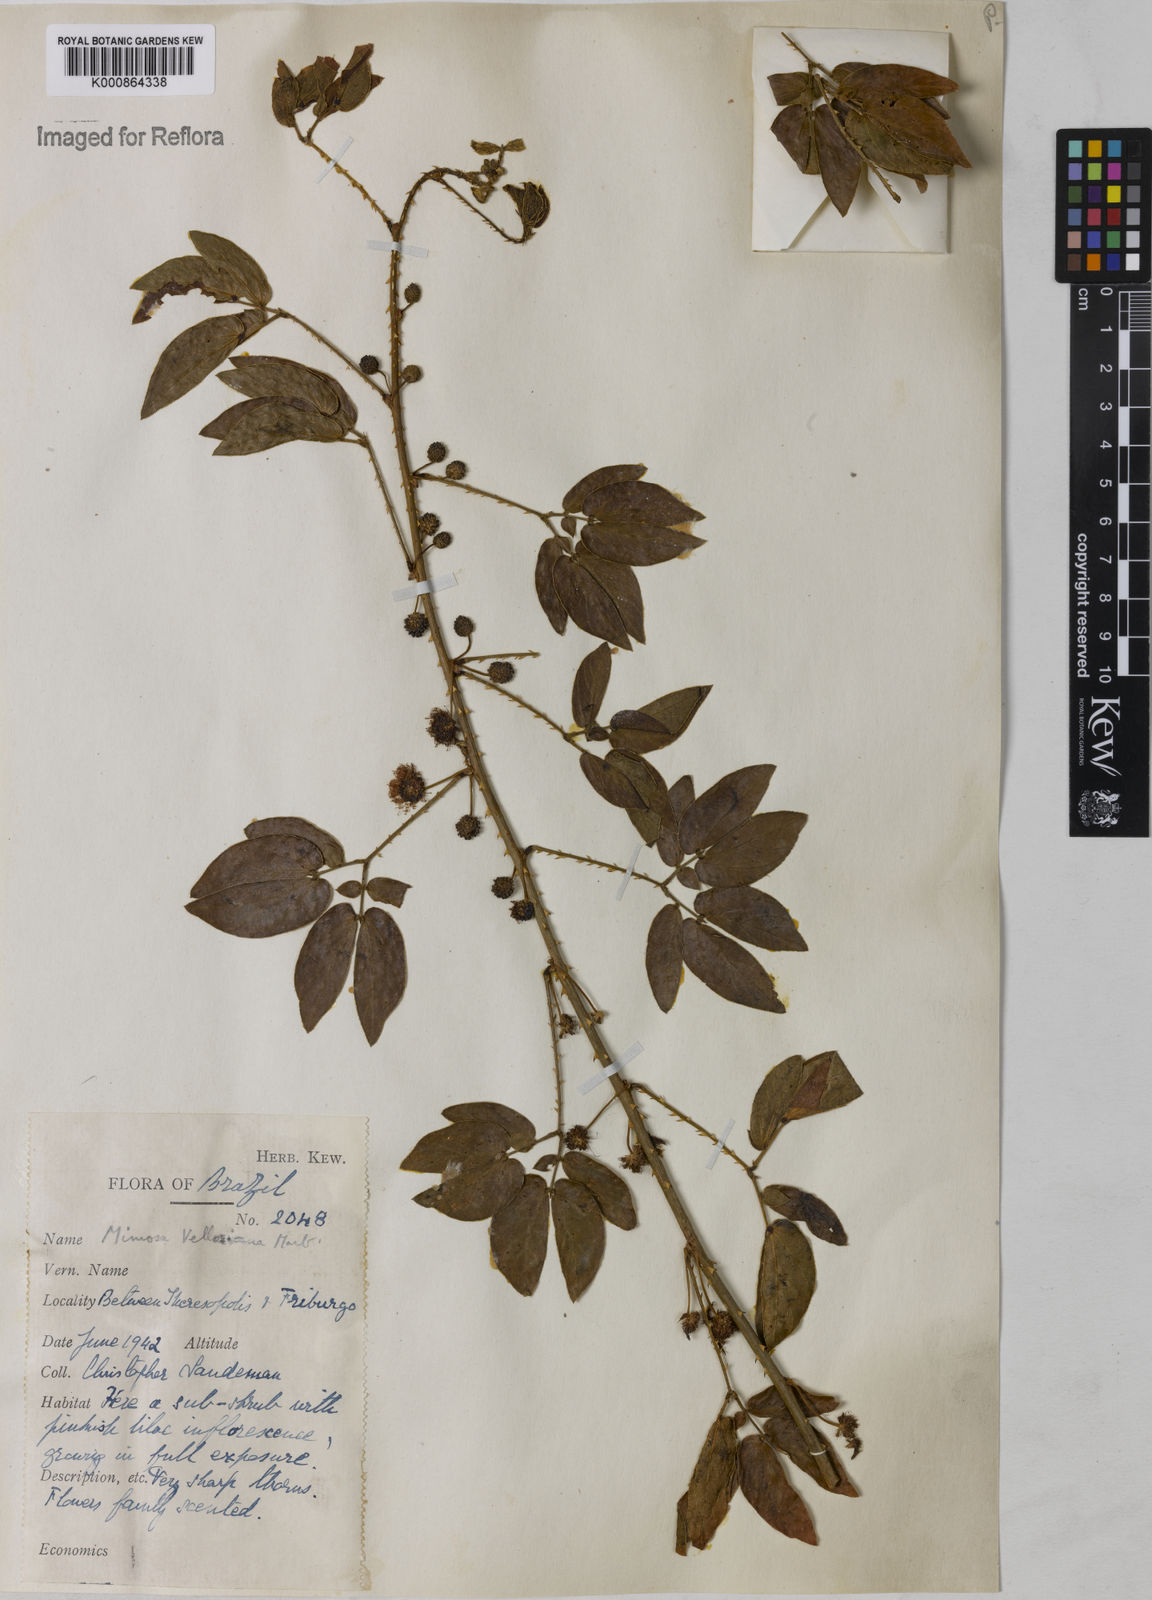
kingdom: Plantae
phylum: Tracheophyta
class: Magnoliopsida
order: Fabales
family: Fabaceae
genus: Mimosa
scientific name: Mimosa velloziana
